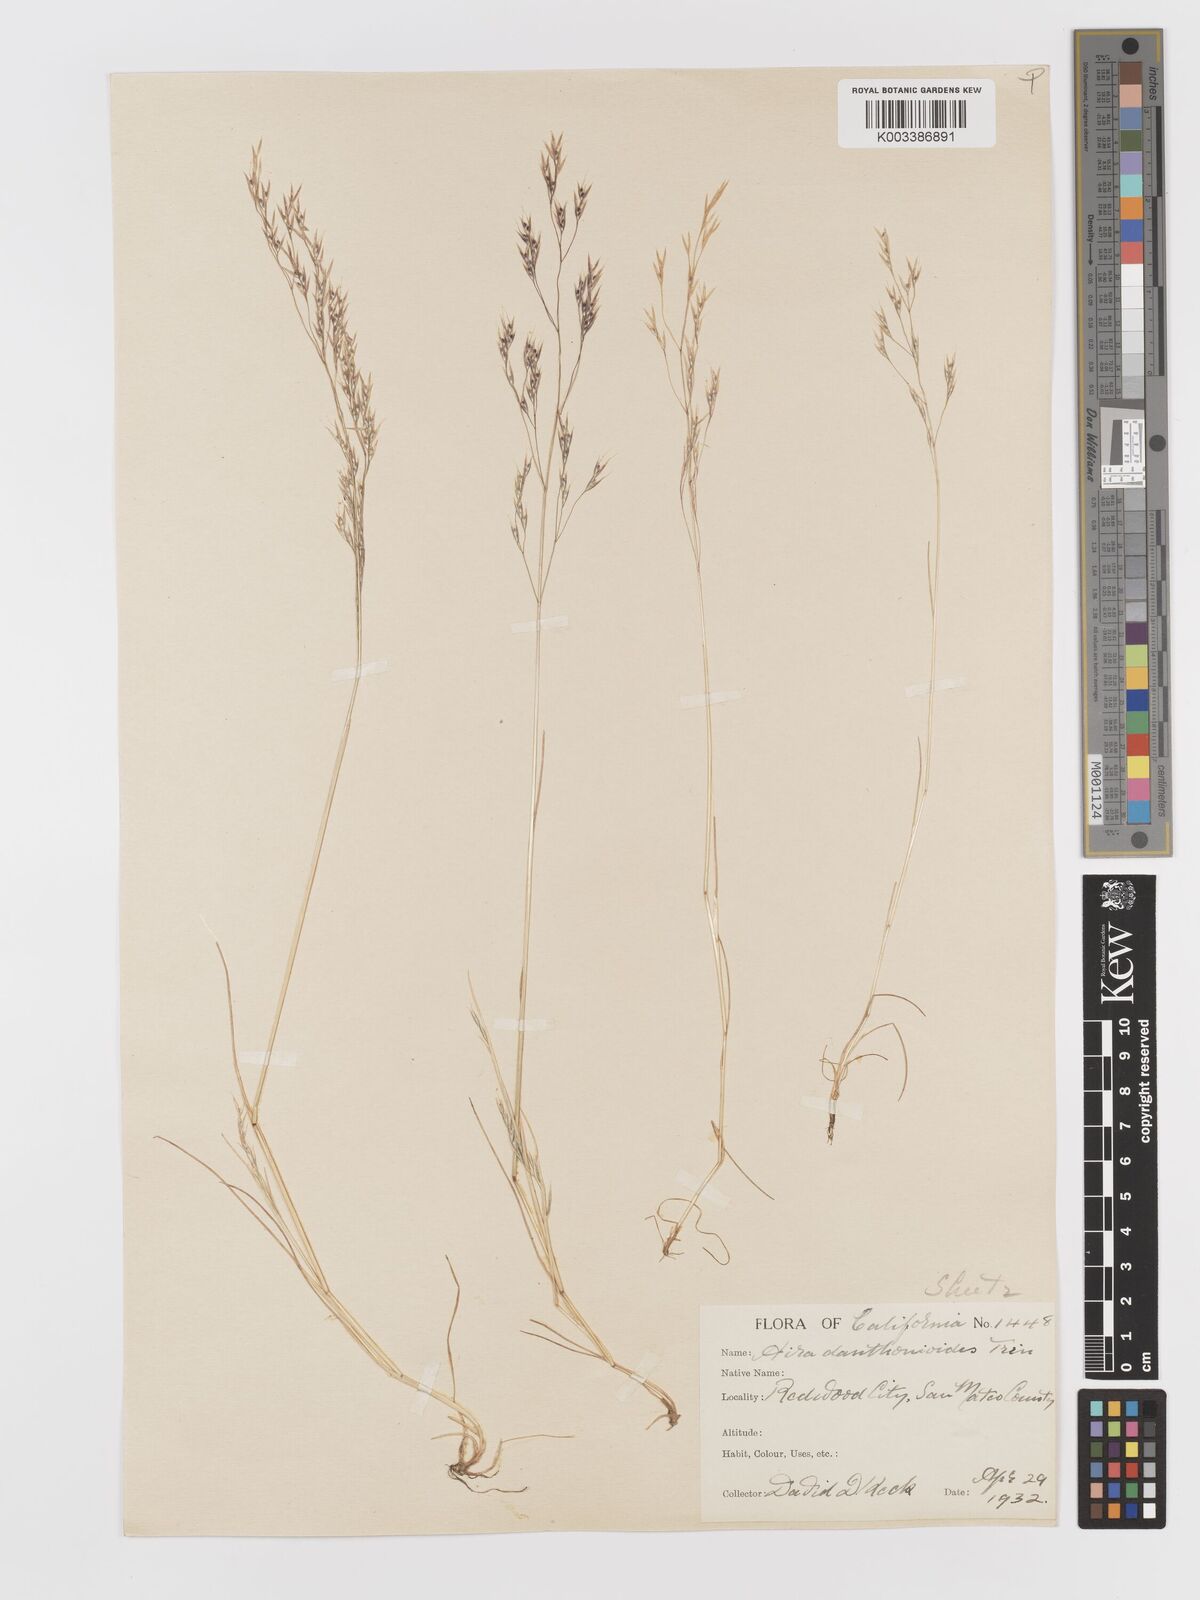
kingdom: Plantae
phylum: Tracheophyta
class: Liliopsida
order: Poales
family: Poaceae
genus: Deschampsia
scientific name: Deschampsia danthonioides
